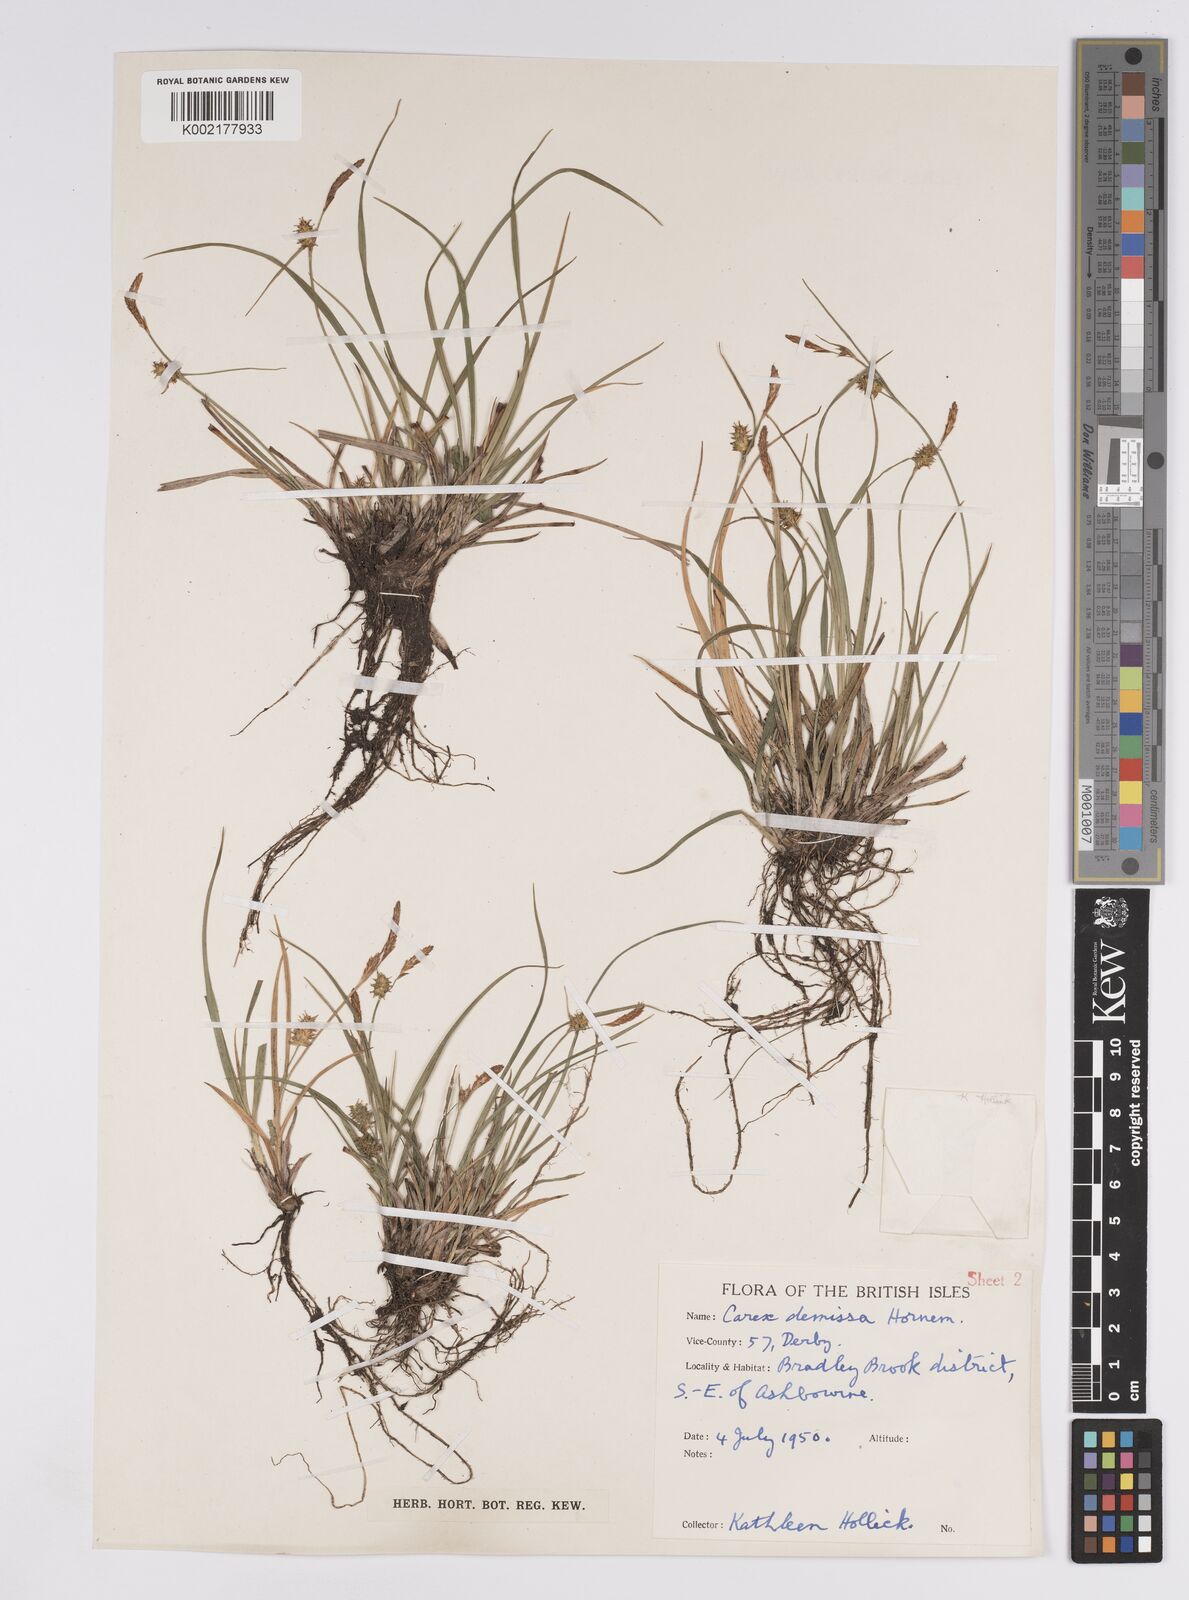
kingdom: Plantae
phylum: Tracheophyta
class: Liliopsida
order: Poales
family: Cyperaceae
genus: Carex
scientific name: Carex demissa
